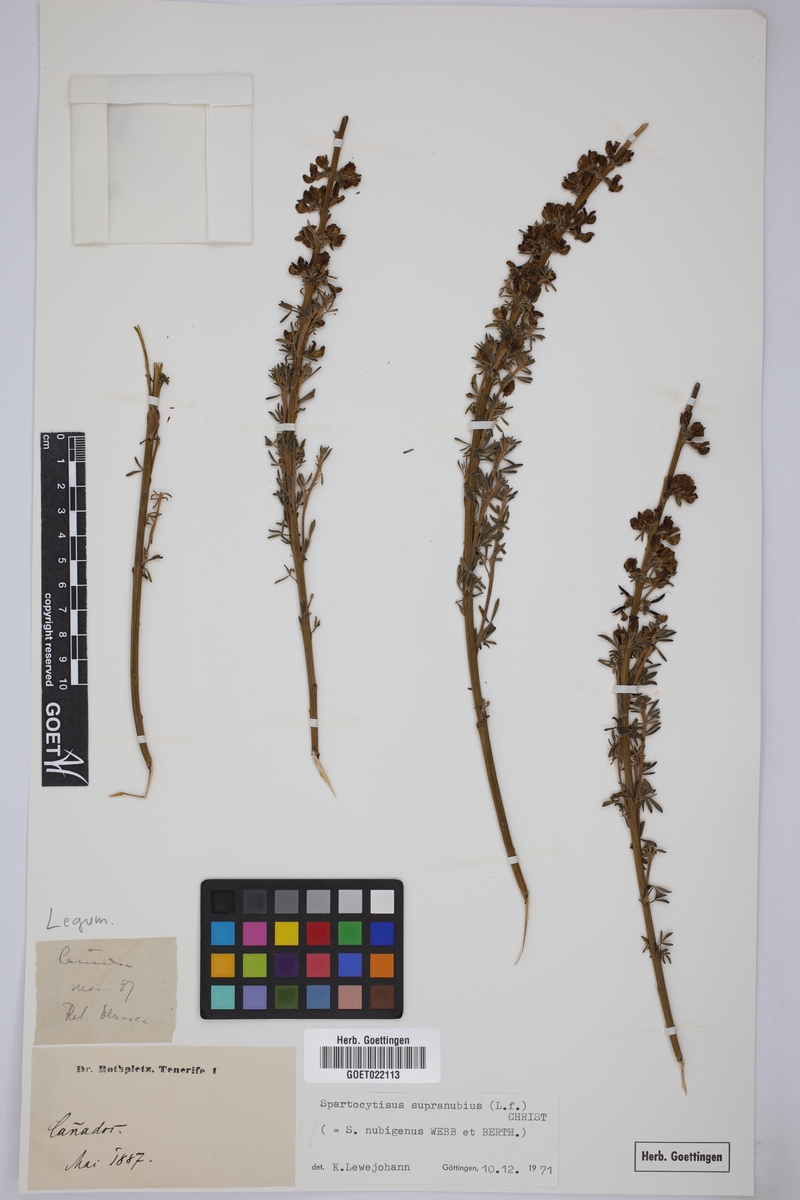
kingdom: Plantae
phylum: Tracheophyta
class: Magnoliopsida
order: Fabales
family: Fabaceae
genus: Cytisus
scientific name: Cytisus supranubius
